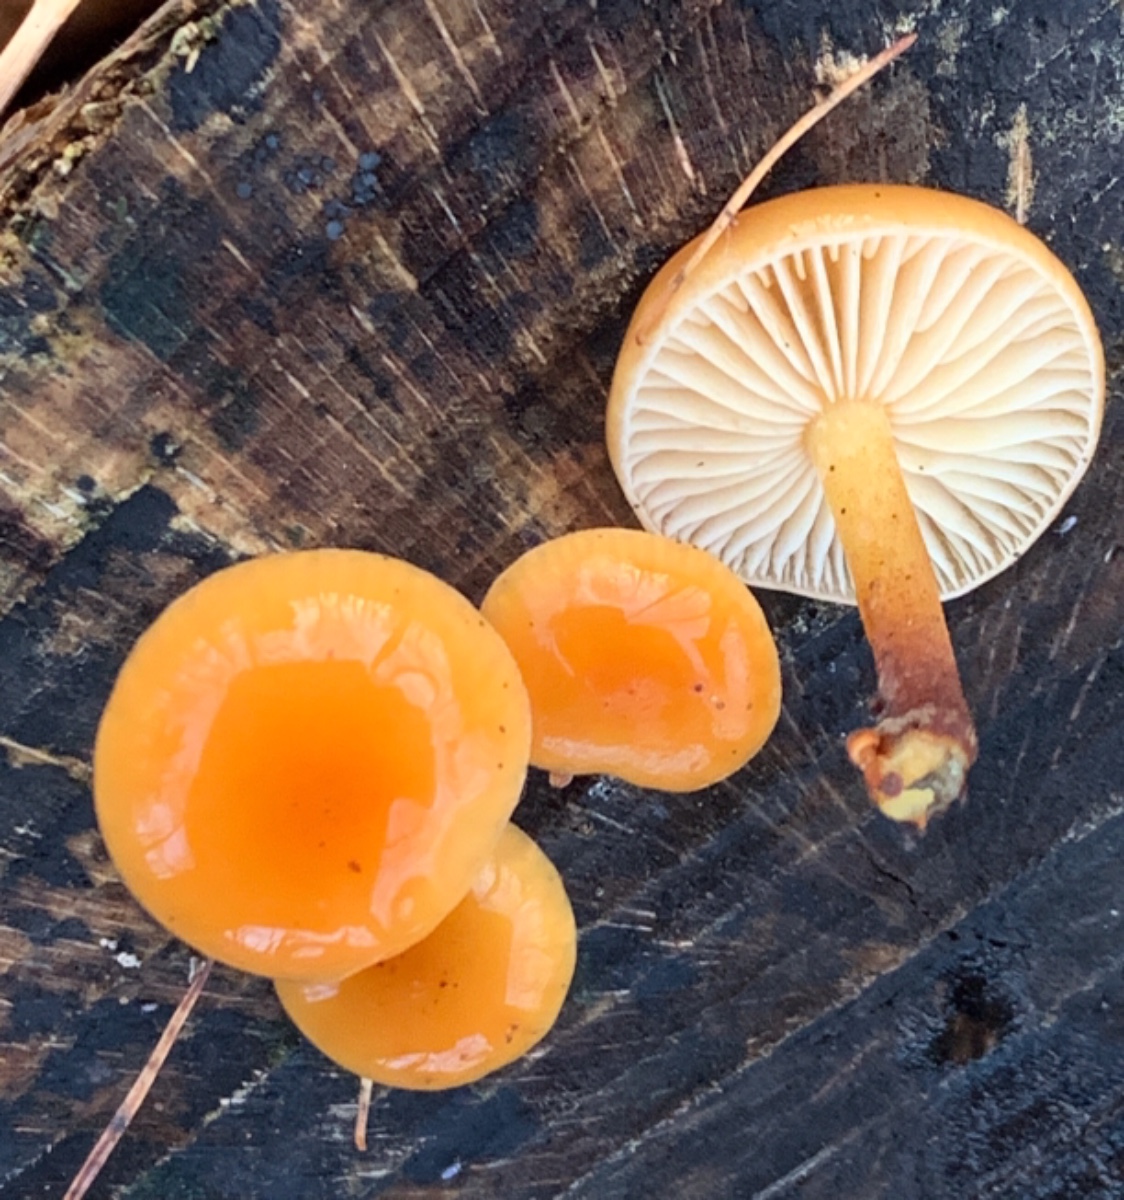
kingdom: Fungi
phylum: Basidiomycota
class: Agaricomycetes
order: Agaricales
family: Physalacriaceae
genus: Flammulina
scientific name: Flammulina velutipes
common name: gul fløjlsfod
